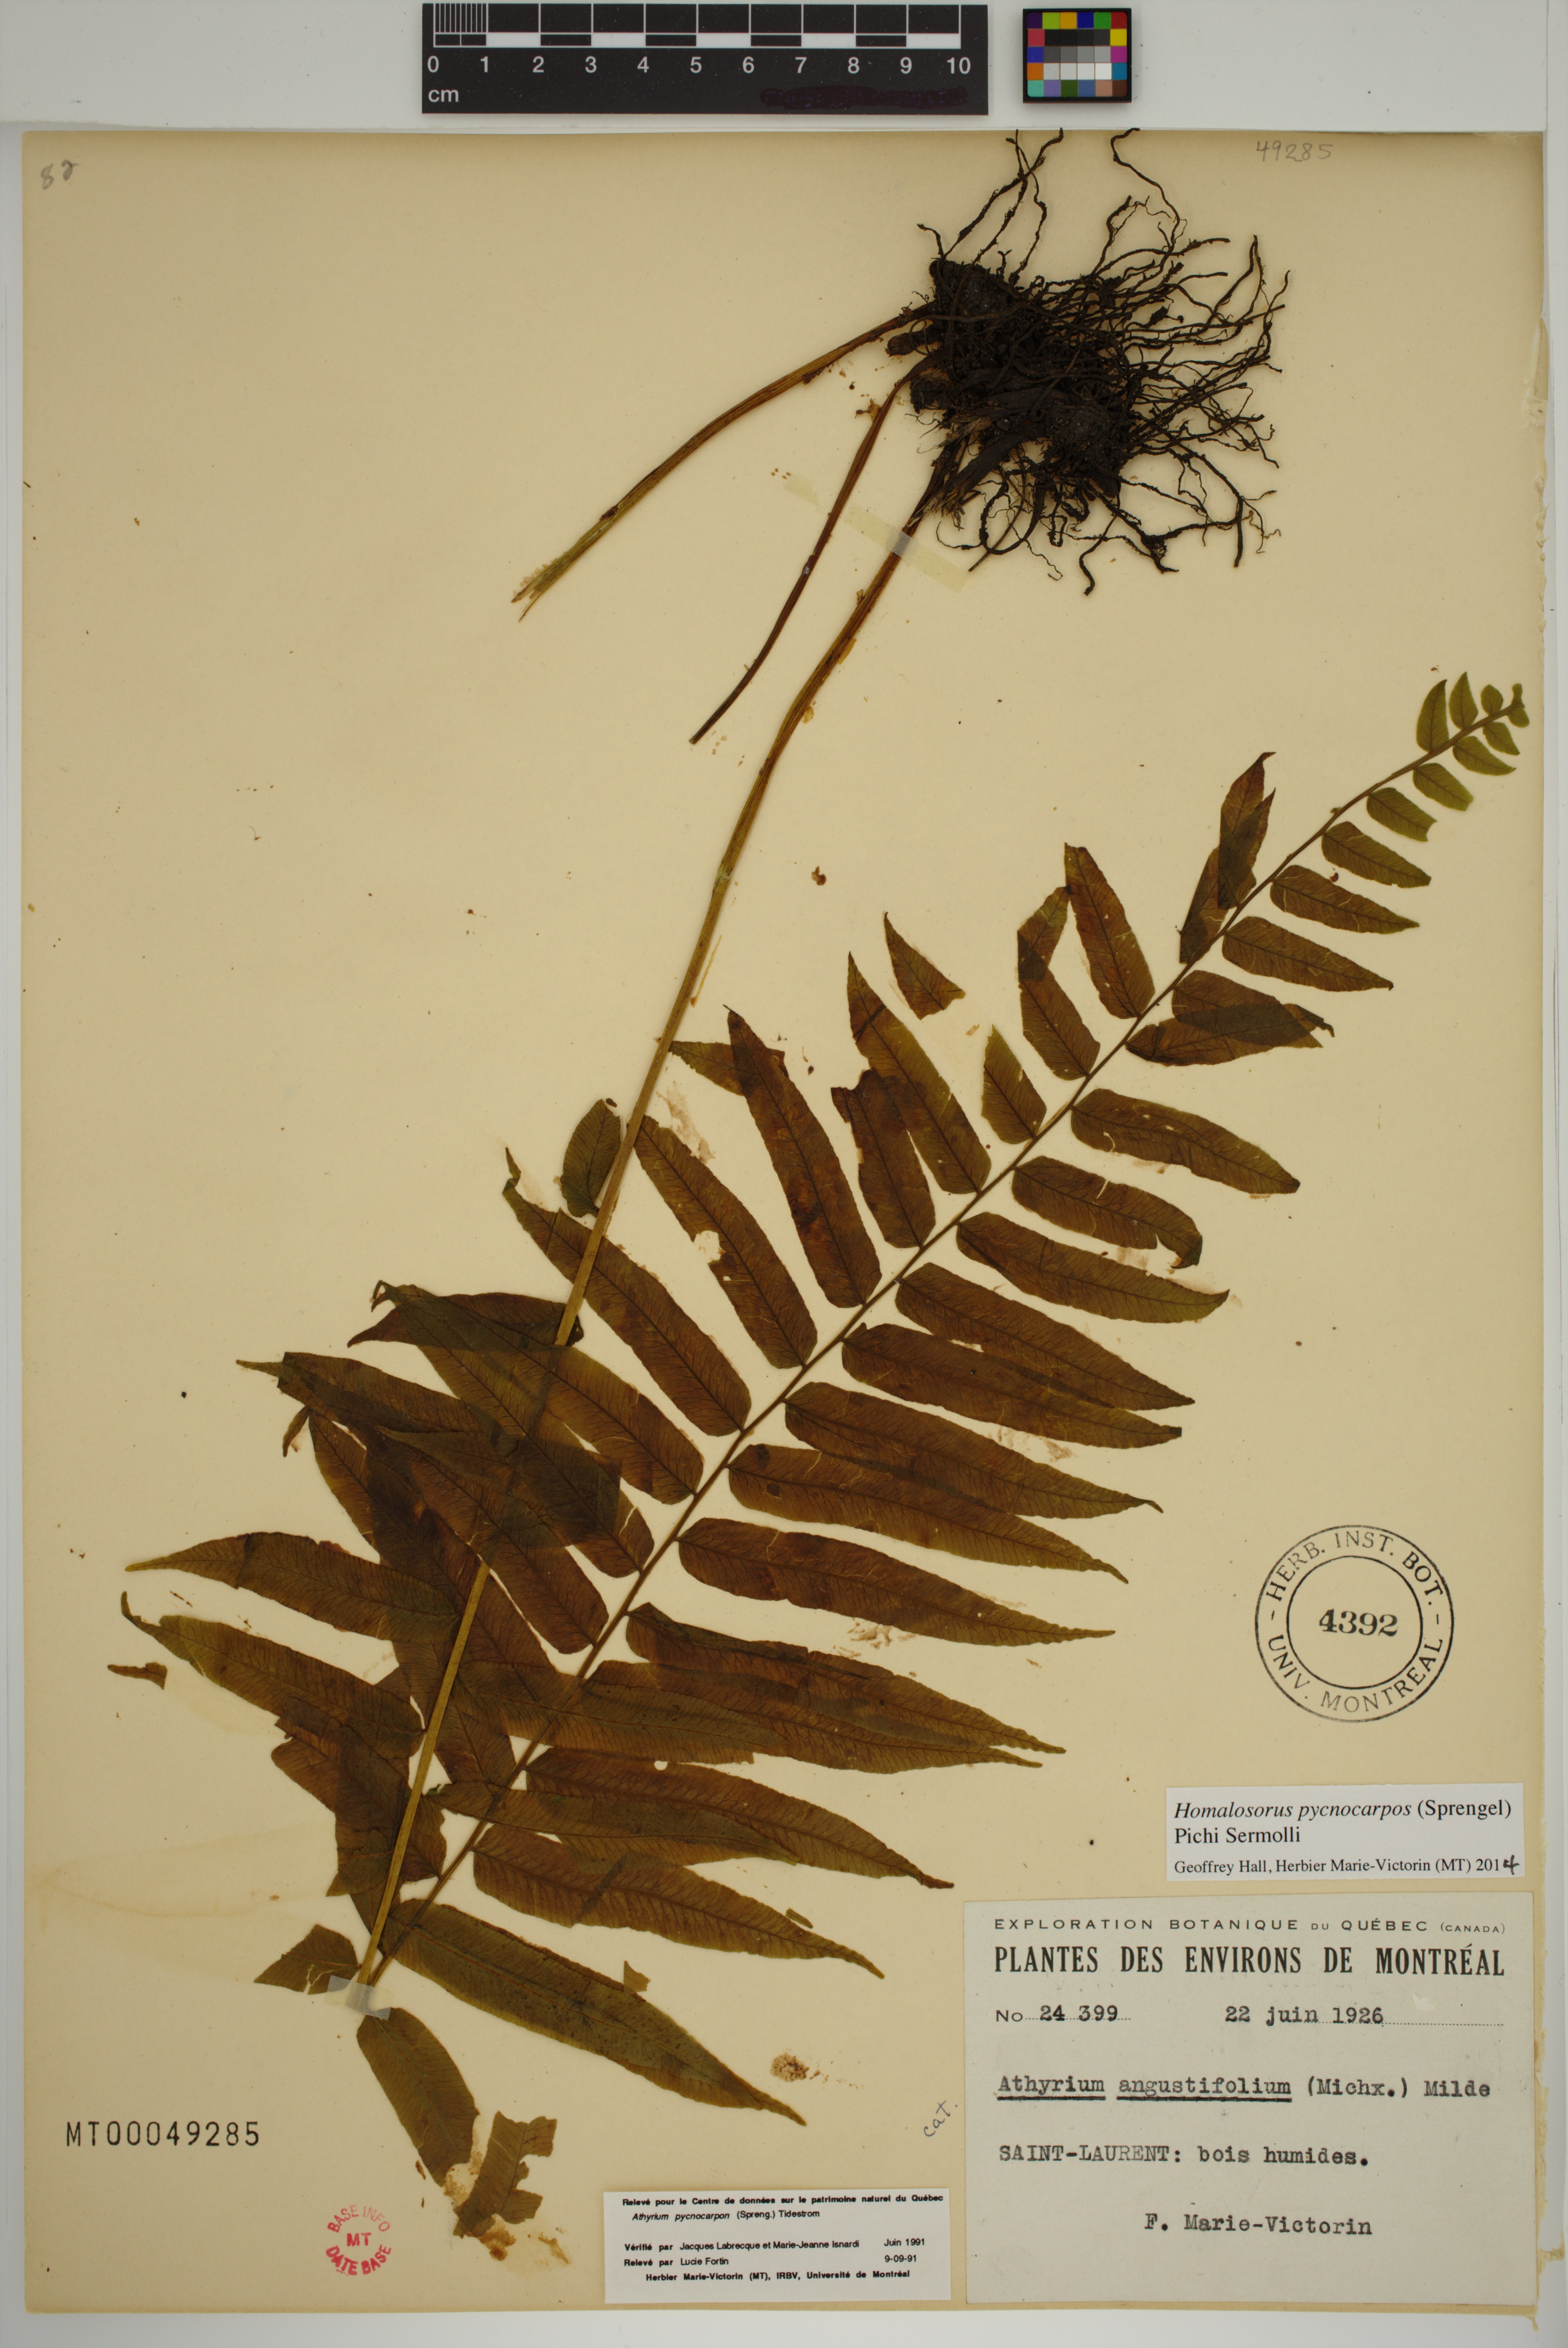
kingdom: Plantae
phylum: Tracheophyta
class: Polypodiopsida
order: Polypodiales
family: Diplaziopsidaceae
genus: Homalosorus
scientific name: Homalosorus pycnocarpos
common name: Glade fern
